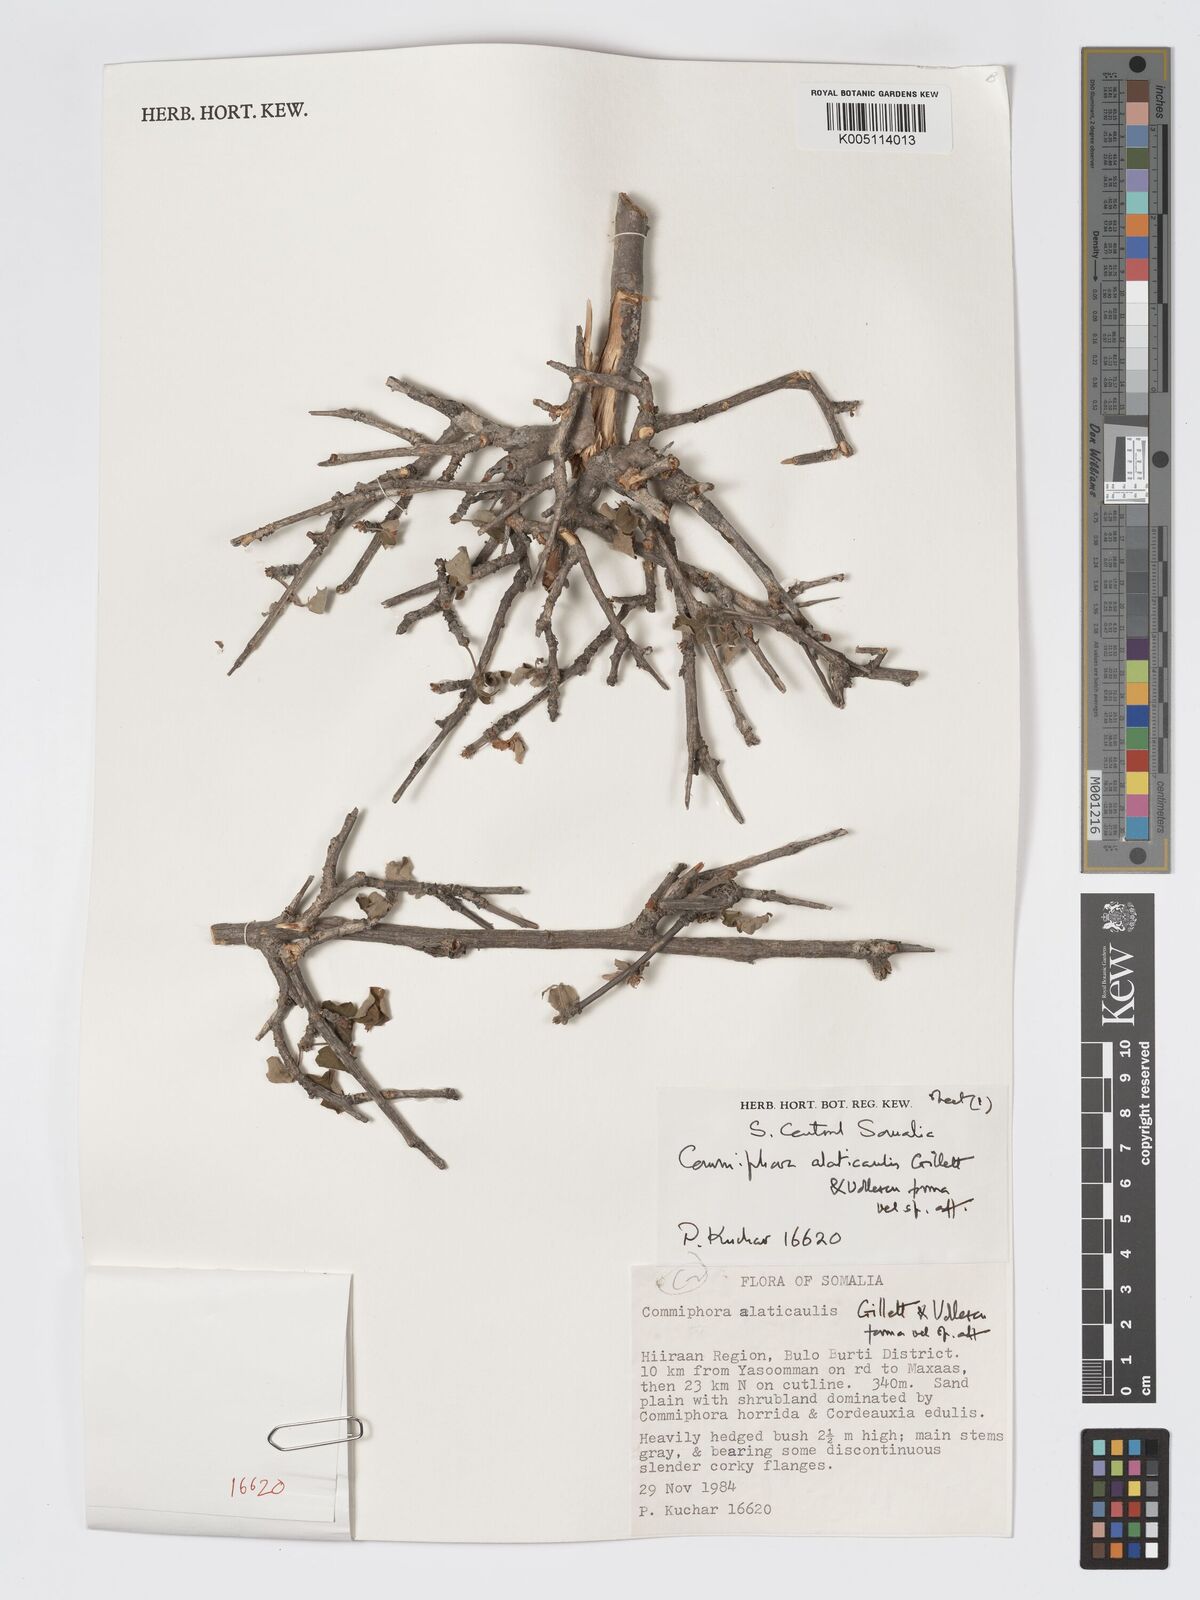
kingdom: Plantae
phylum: Tracheophyta
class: Magnoliopsida
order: Sapindales
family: Burseraceae
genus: Commiphora
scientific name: Commiphora alaticaulis
